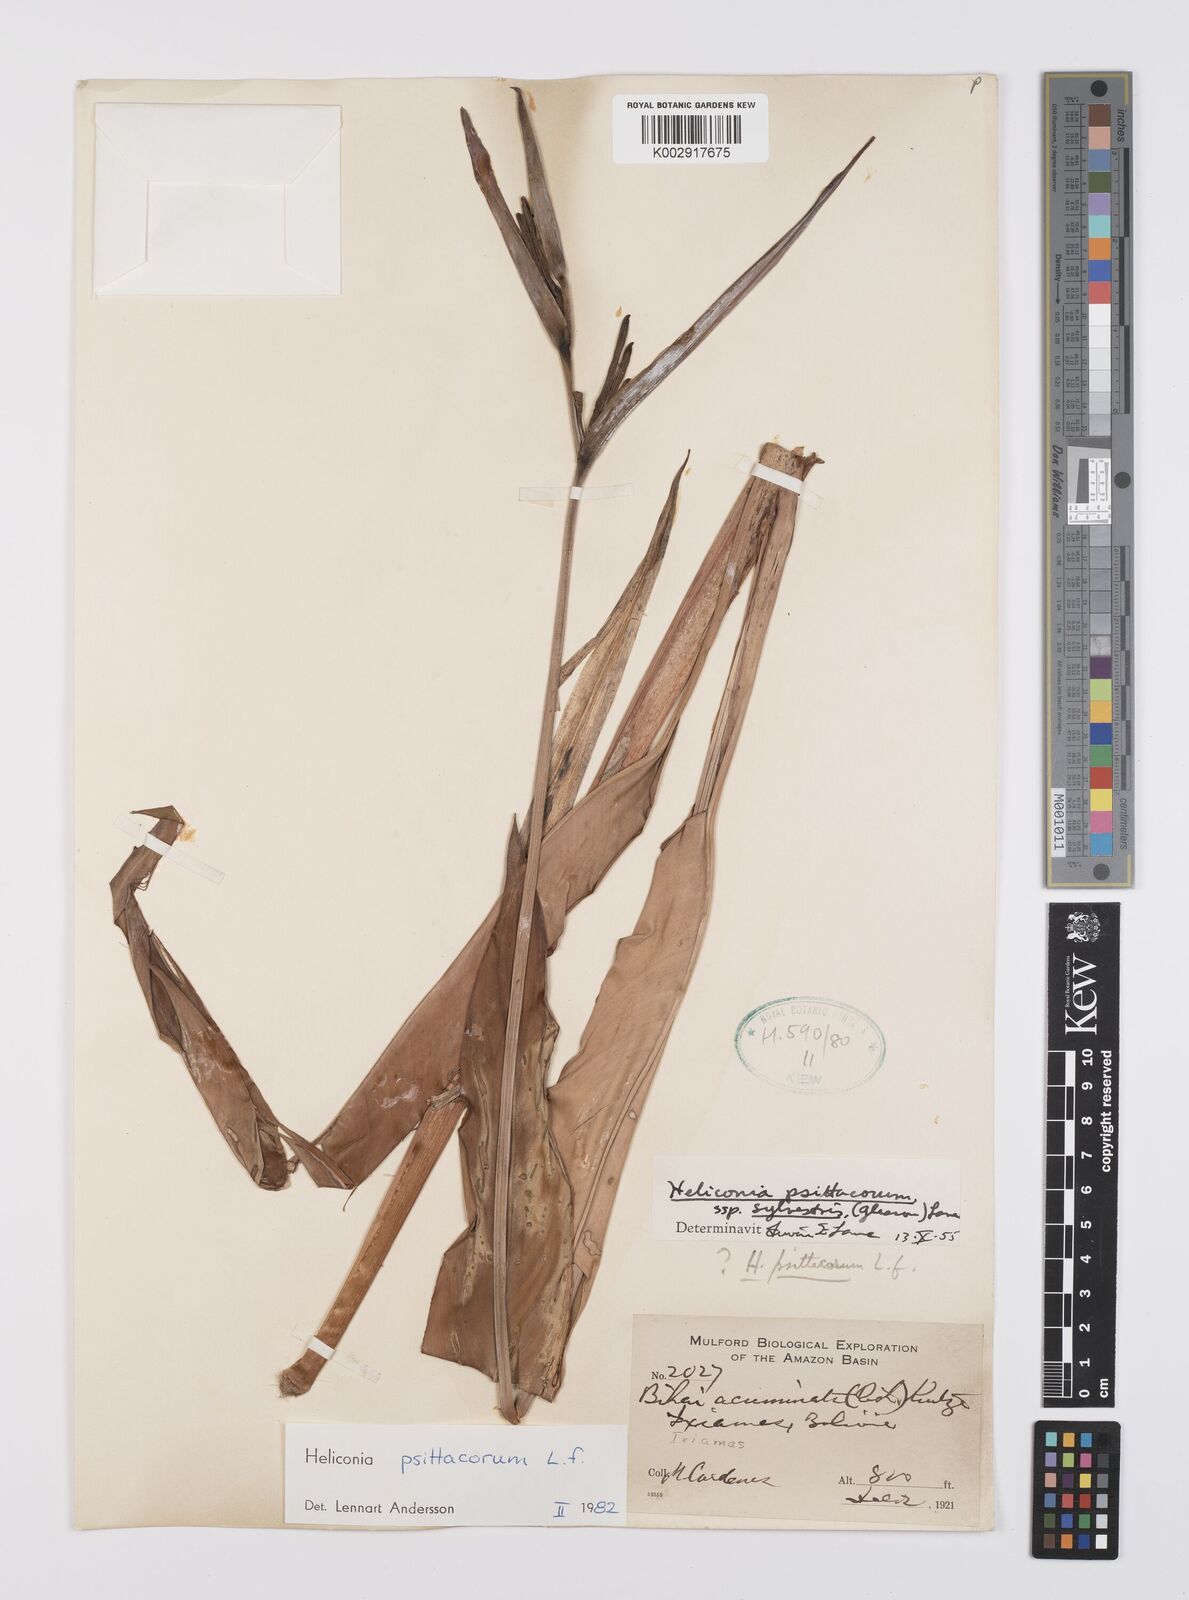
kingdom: Plantae
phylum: Tracheophyta
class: Liliopsida
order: Zingiberales
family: Heliconiaceae
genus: Heliconia
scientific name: Heliconia psittacorum
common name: Parrot's-flower
